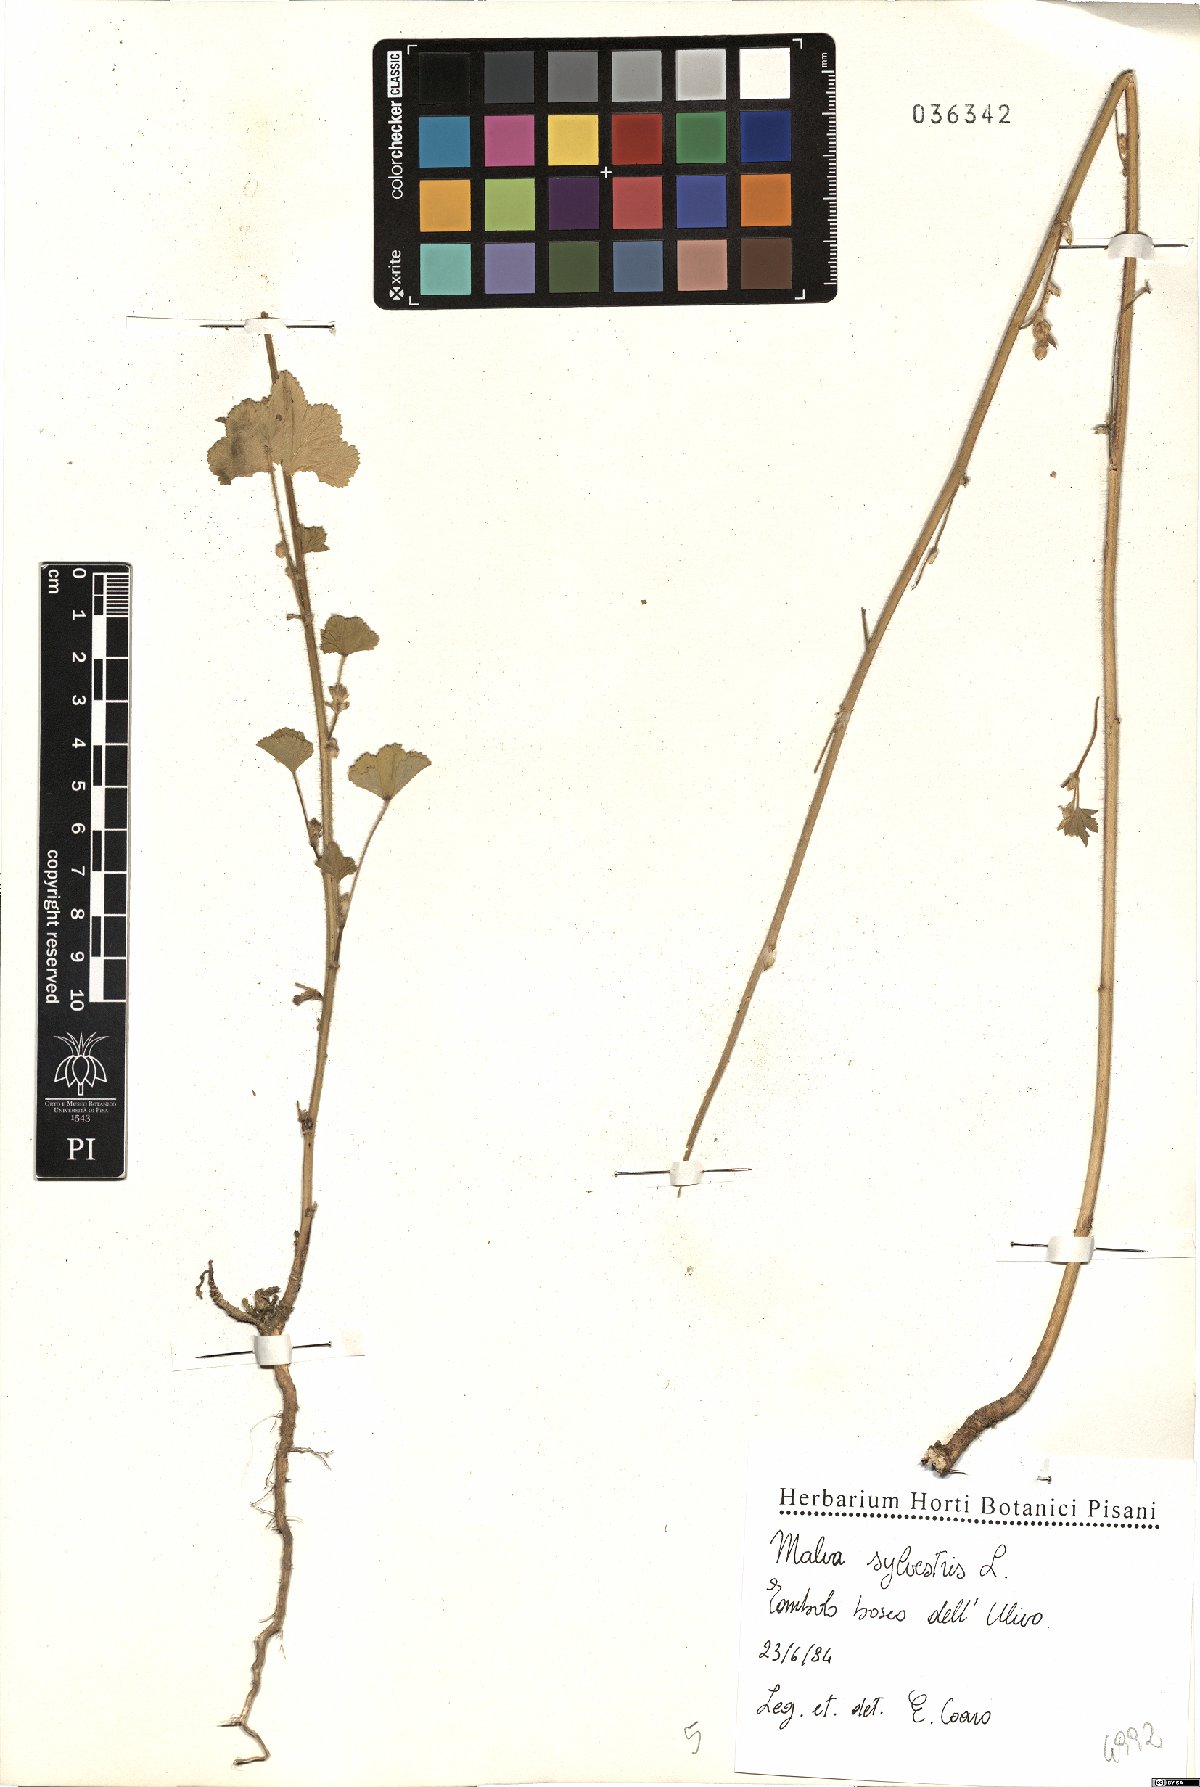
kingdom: Plantae
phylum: Tracheophyta
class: Magnoliopsida
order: Malvales
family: Malvaceae
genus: Malva
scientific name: Malva sylvestris
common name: Common mallow
